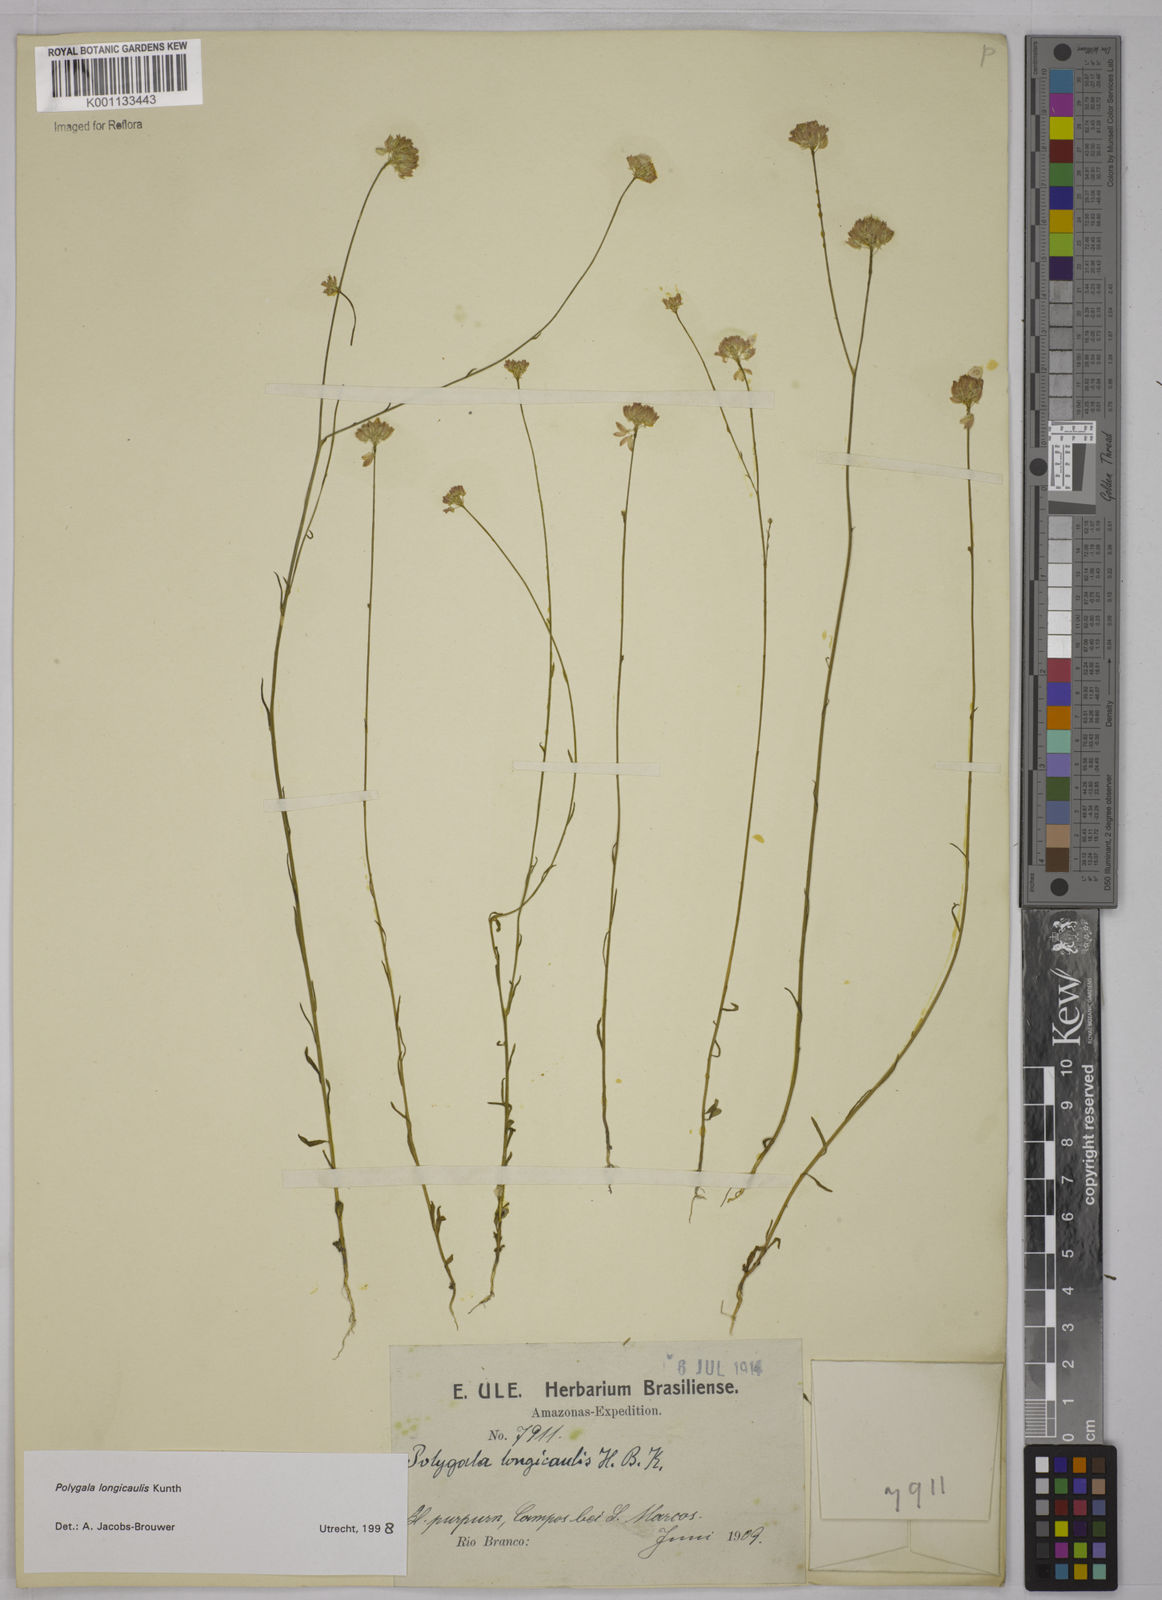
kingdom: Plantae
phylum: Tracheophyta
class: Magnoliopsida
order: Fabales
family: Polygalaceae
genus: Polygala
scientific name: Polygala longicaulis
